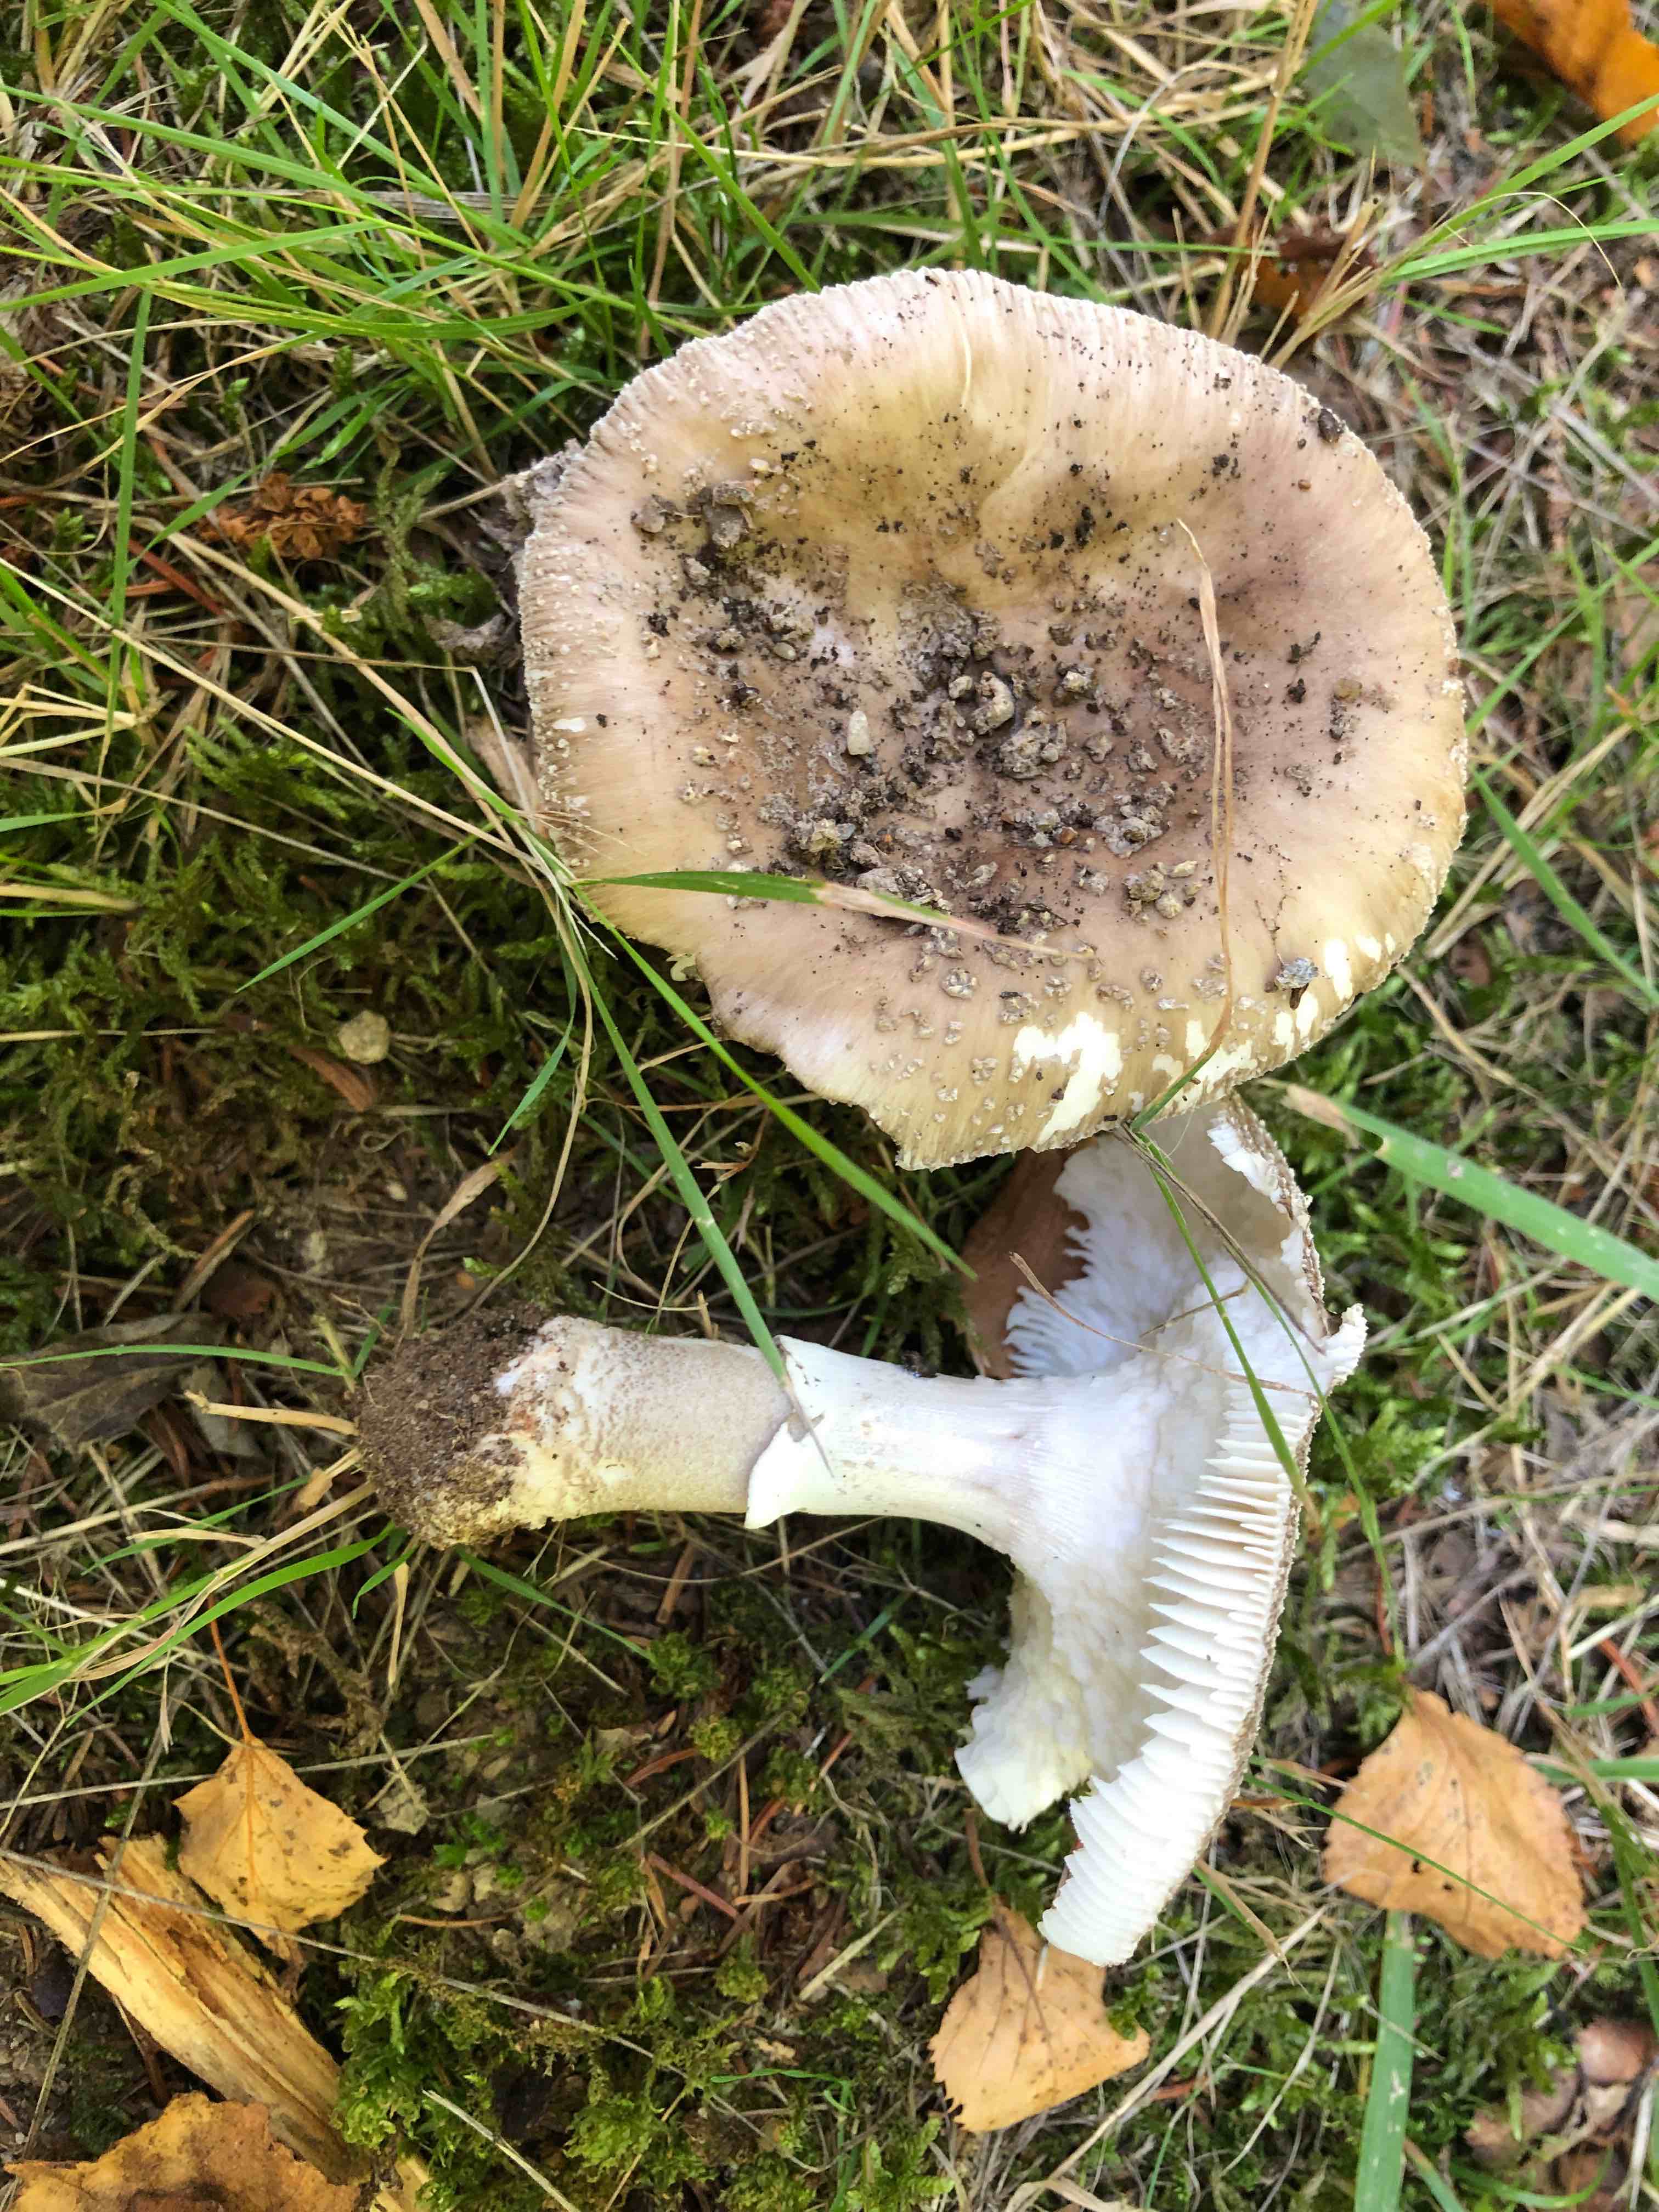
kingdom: Fungi
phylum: Basidiomycota
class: Agaricomycetes
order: Agaricales
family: Amanitaceae
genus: Amanita
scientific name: Amanita
